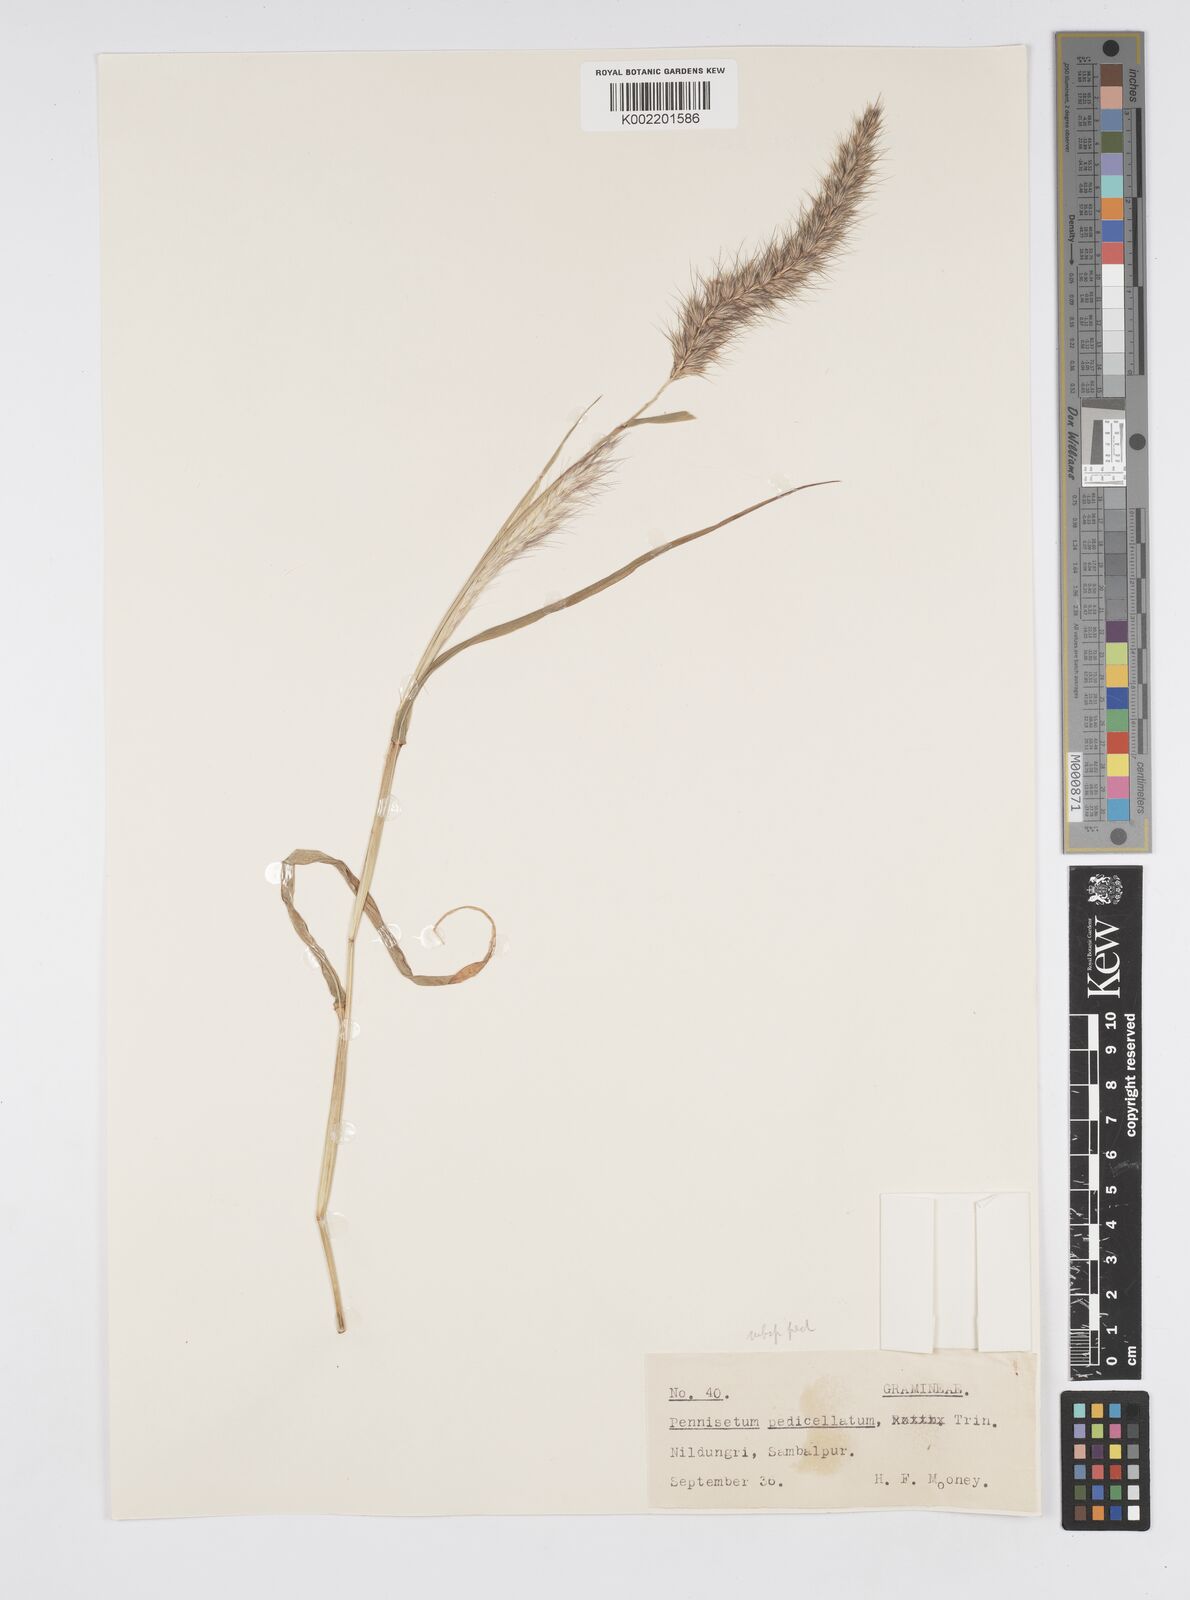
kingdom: Plantae
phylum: Tracheophyta
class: Liliopsida
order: Poales
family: Poaceae
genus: Cenchrus
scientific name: Cenchrus pedicellatus
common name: Hairy fountain grass
